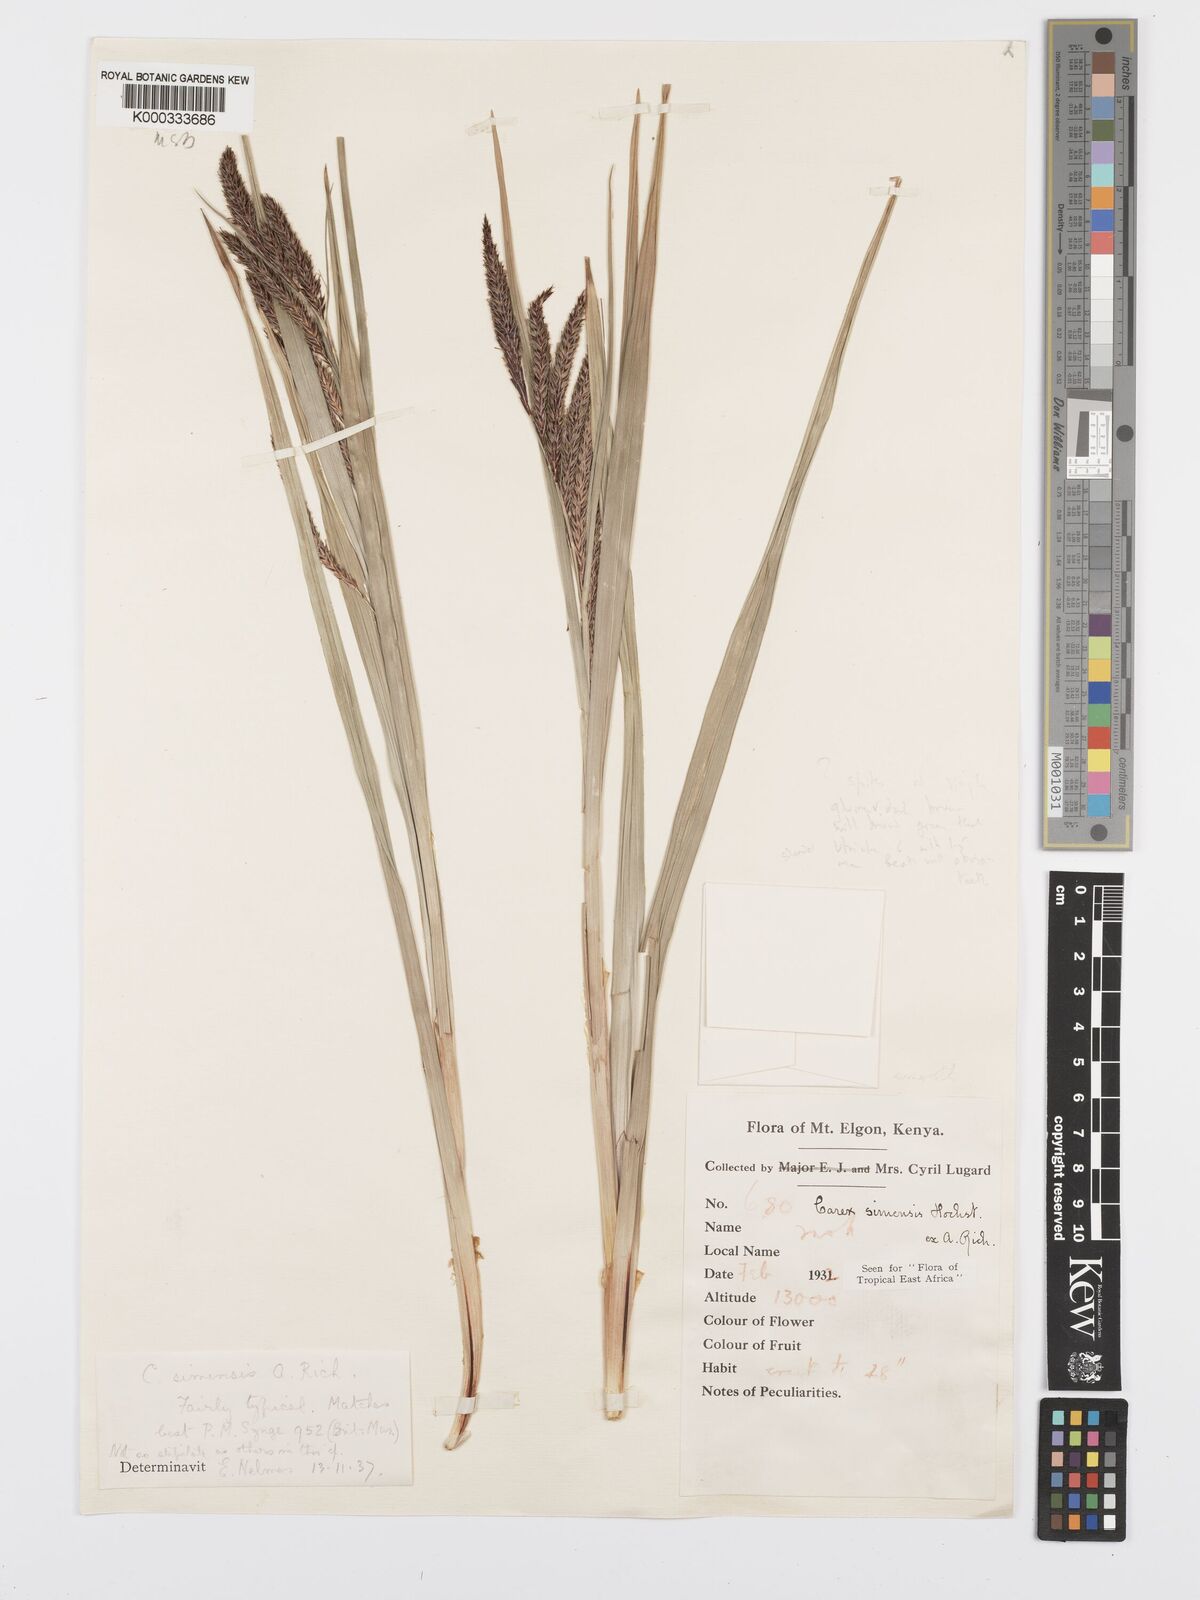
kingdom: Plantae
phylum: Tracheophyta
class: Liliopsida
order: Poales
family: Cyperaceae
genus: Carex
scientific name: Carex simensis
